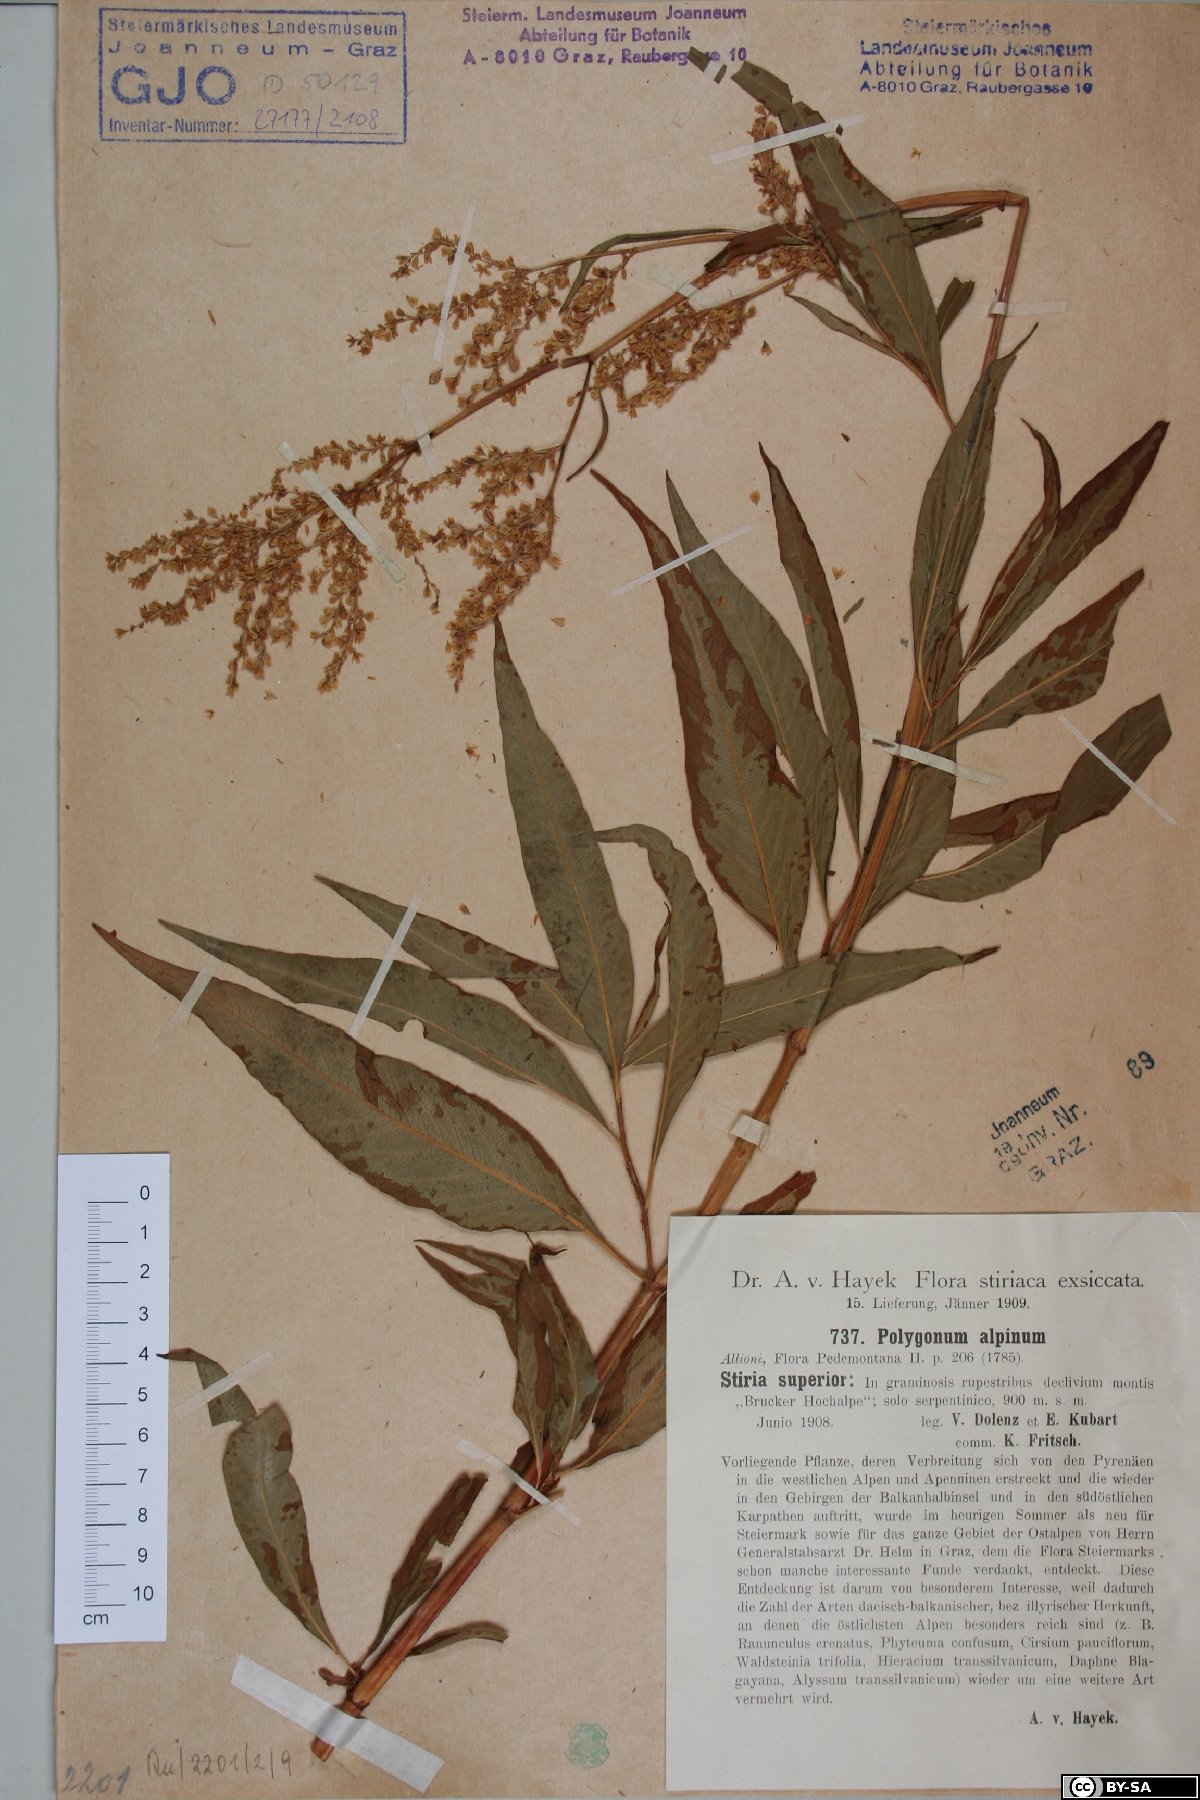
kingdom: Plantae
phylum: Tracheophyta
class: Magnoliopsida
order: Caryophyllales
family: Polygonaceae
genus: Koenigia
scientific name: Koenigia alpina
